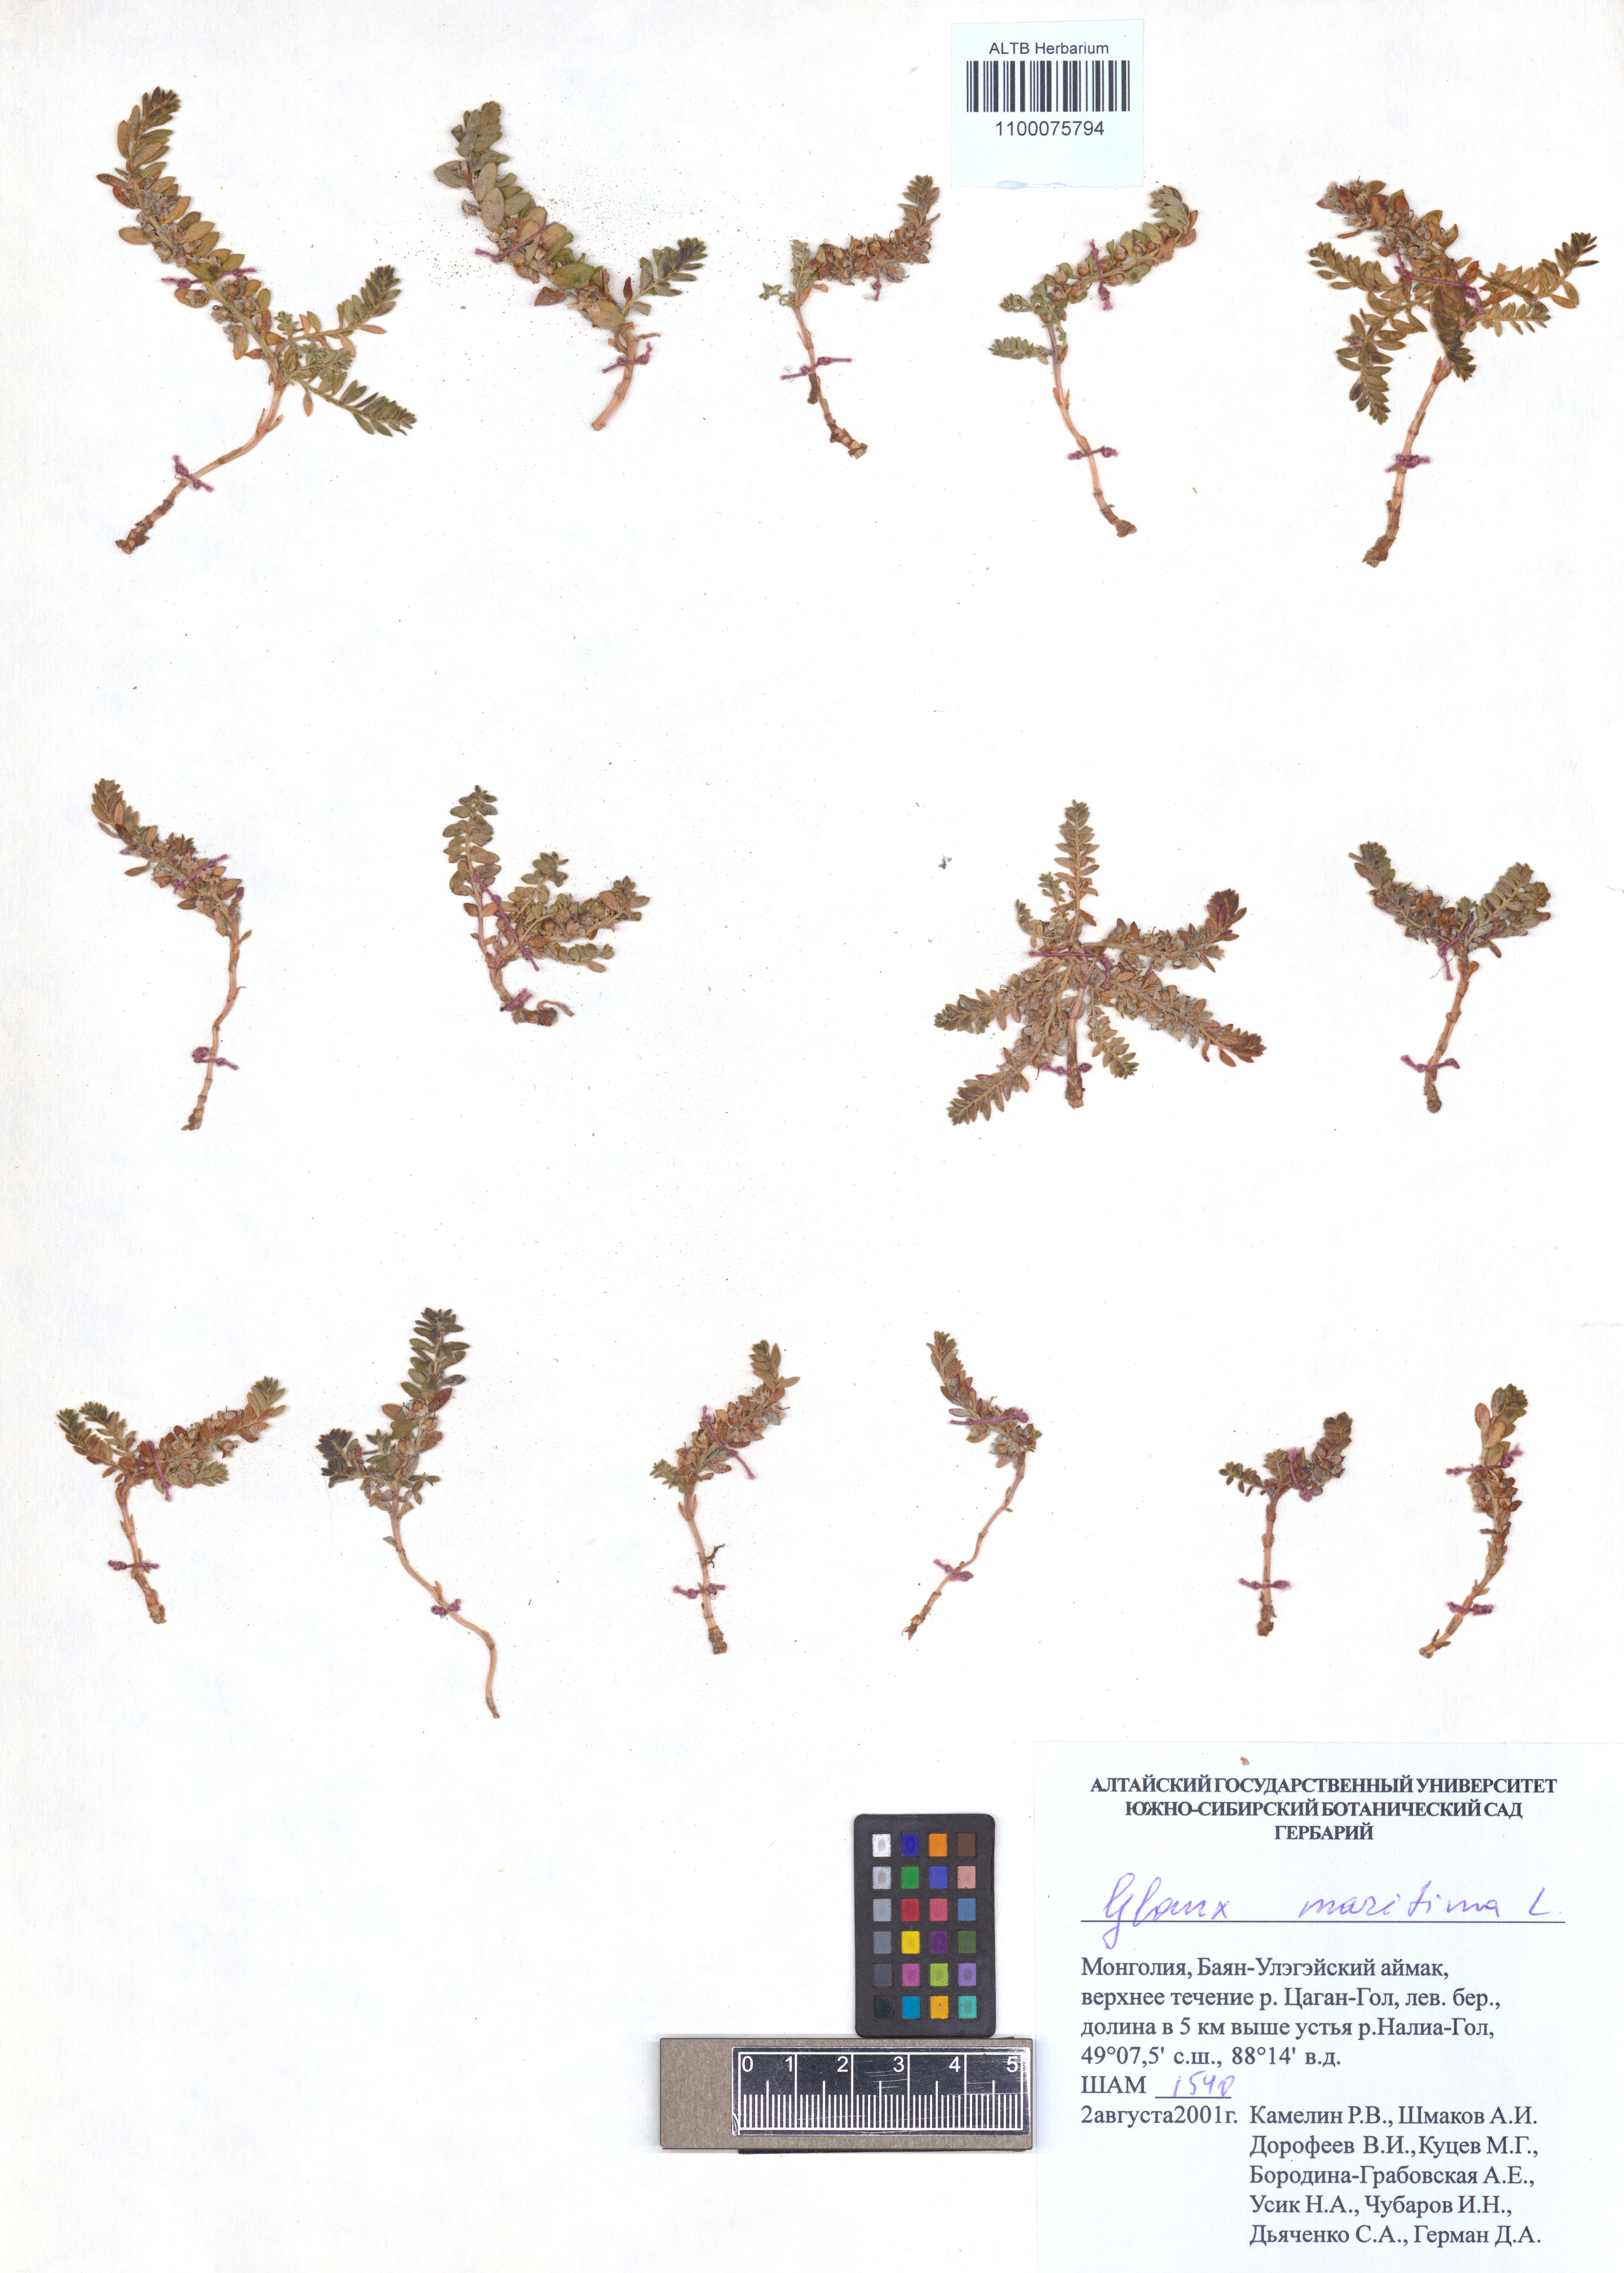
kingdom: Plantae
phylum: Tracheophyta
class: Magnoliopsida
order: Ericales
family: Primulaceae
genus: Lysimachia
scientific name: Lysimachia maritima
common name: Sea milkwort
